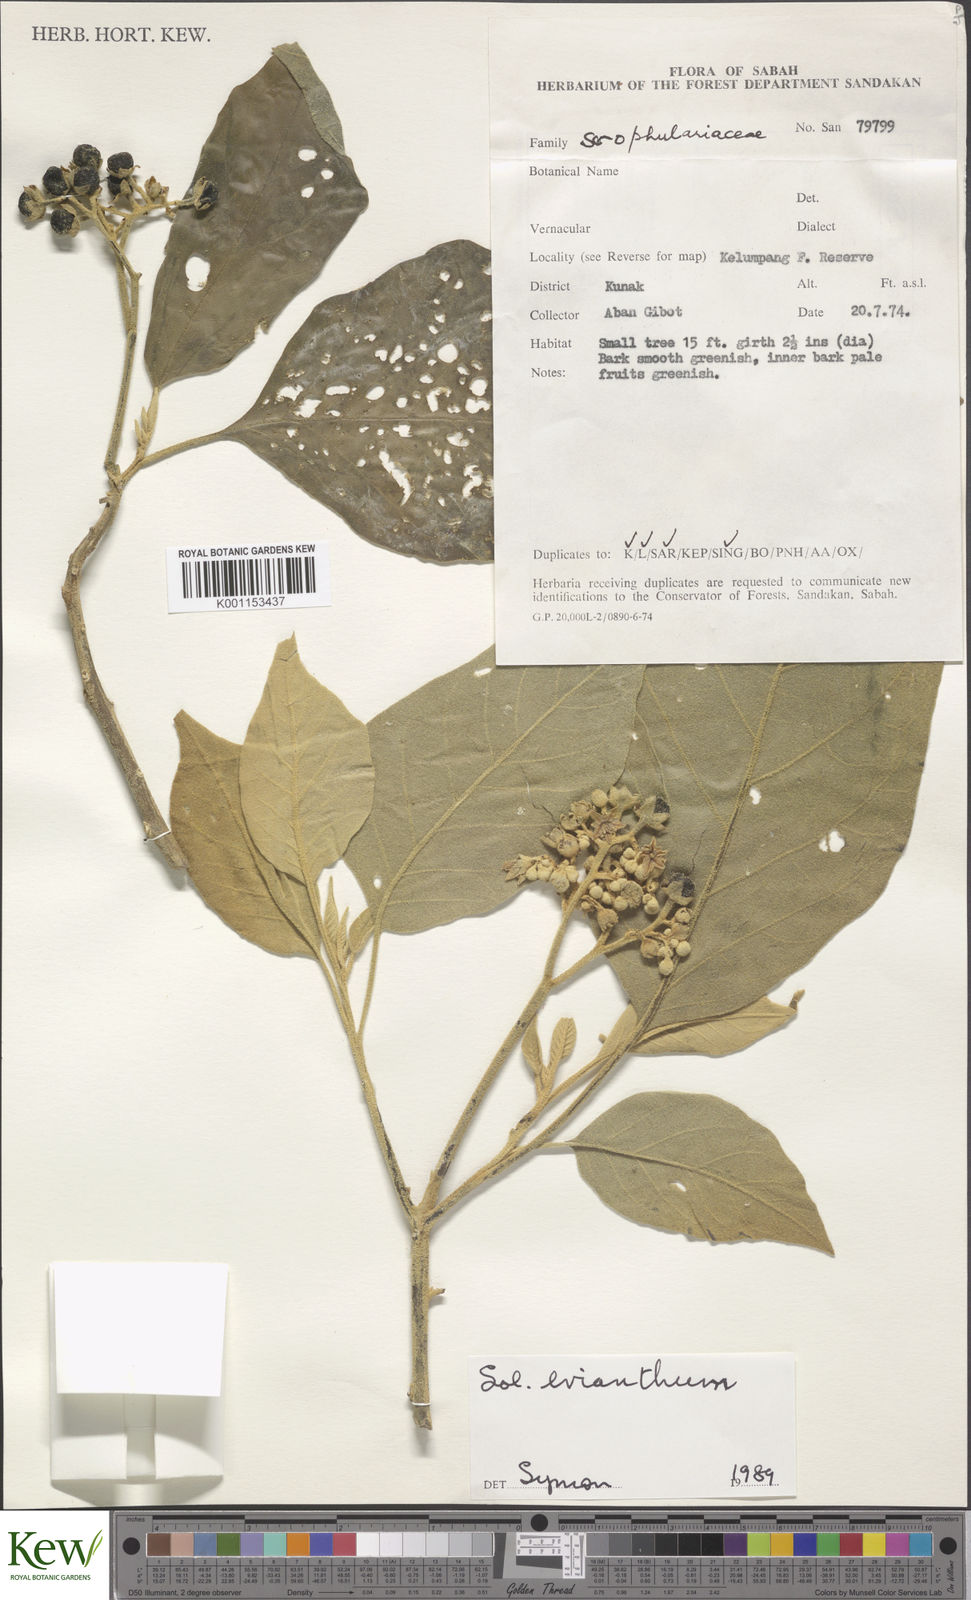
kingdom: Plantae
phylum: Tracheophyta
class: Magnoliopsida
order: Solanales
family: Solanaceae
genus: Solanum
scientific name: Solanum erianthum
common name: Tobacco-tree
